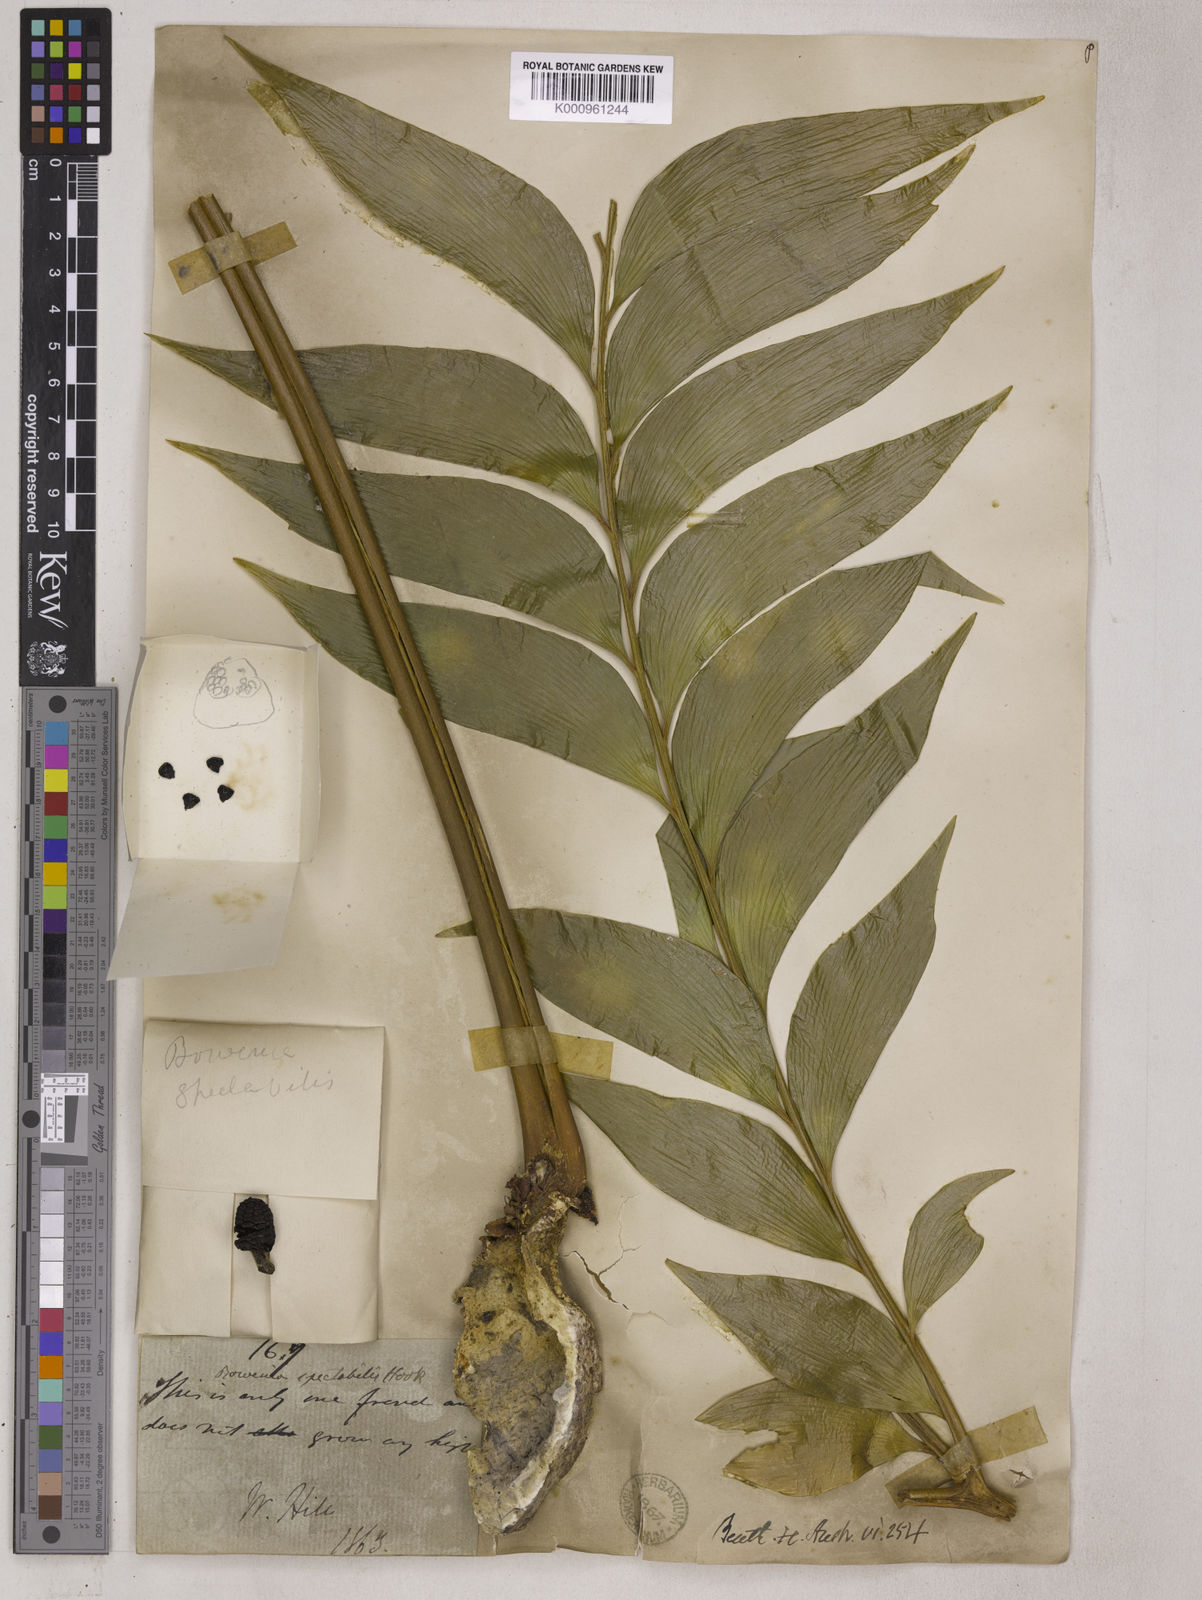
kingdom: Plantae
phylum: Tracheophyta
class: Cycadopsida
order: Cycadales
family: Zamiaceae
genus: Bowenia
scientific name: Bowenia spectabilis
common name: Zamia-fern
